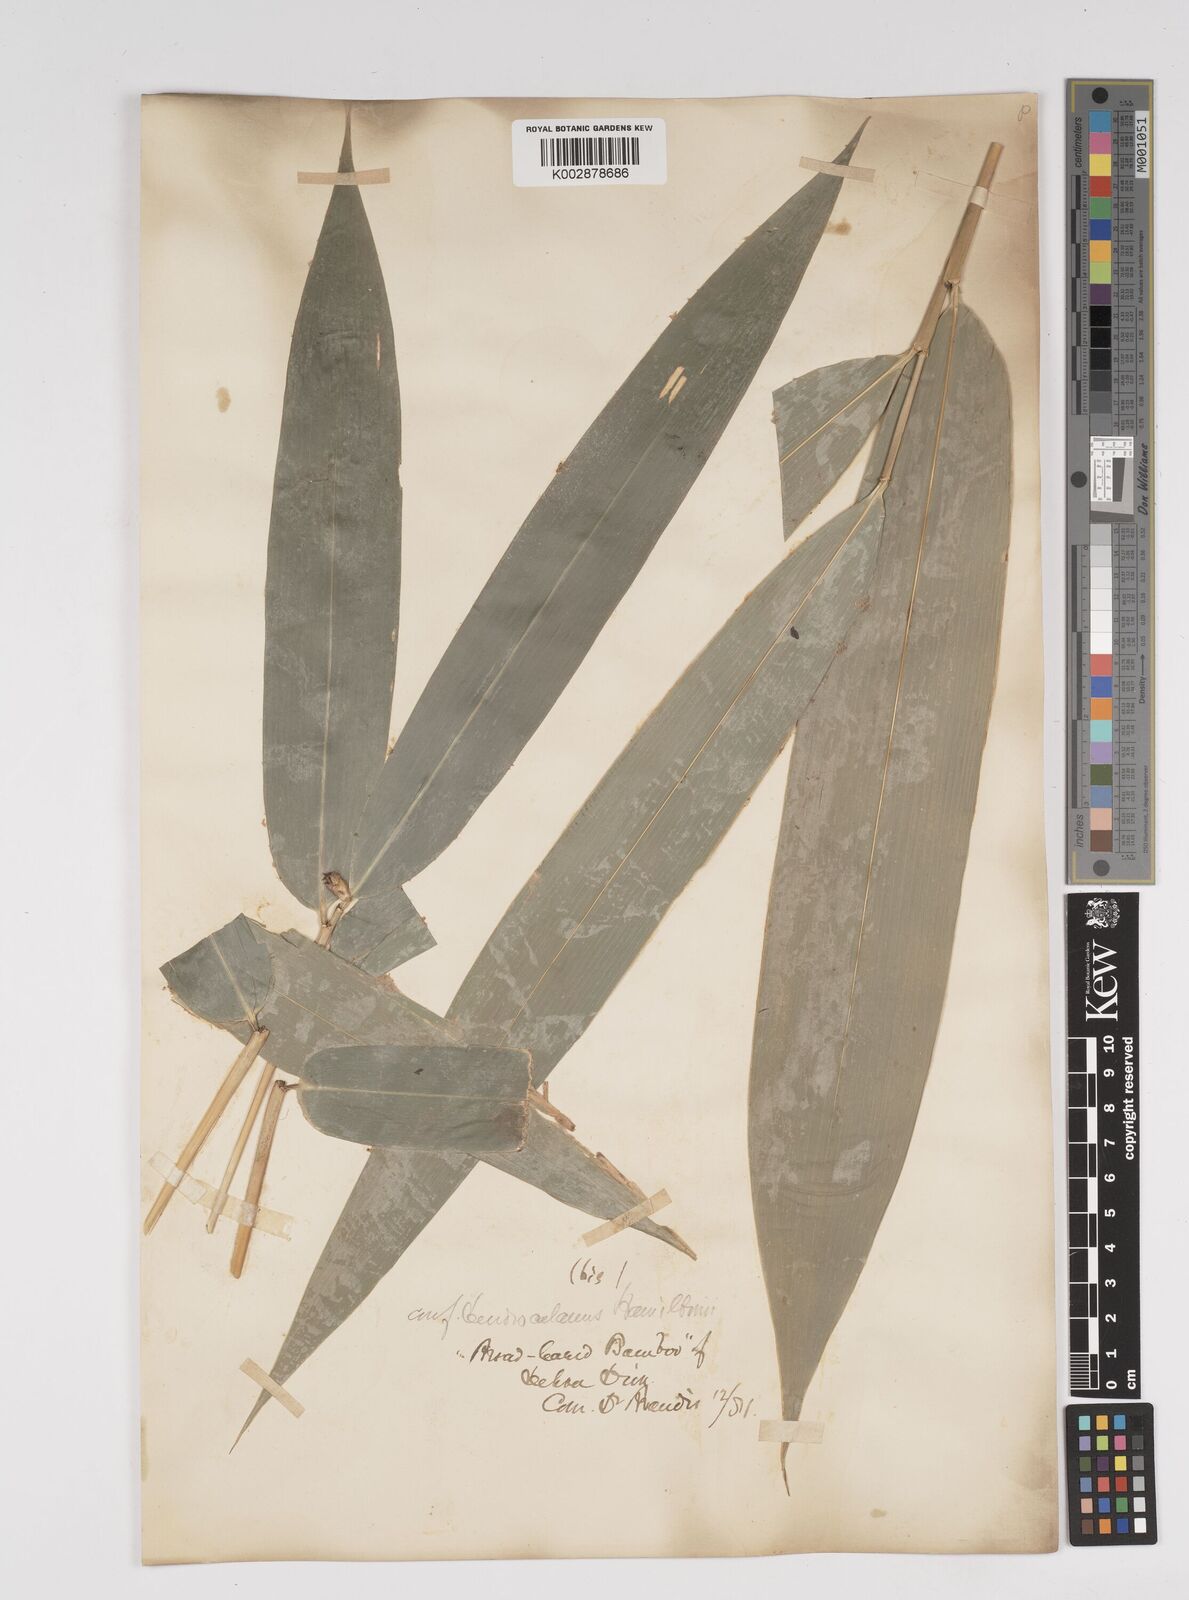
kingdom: Plantae
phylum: Tracheophyta
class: Liliopsida
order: Poales
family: Poaceae
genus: Dendrocalamus
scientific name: Dendrocalamus hamiltonii
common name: Tama bamboo
